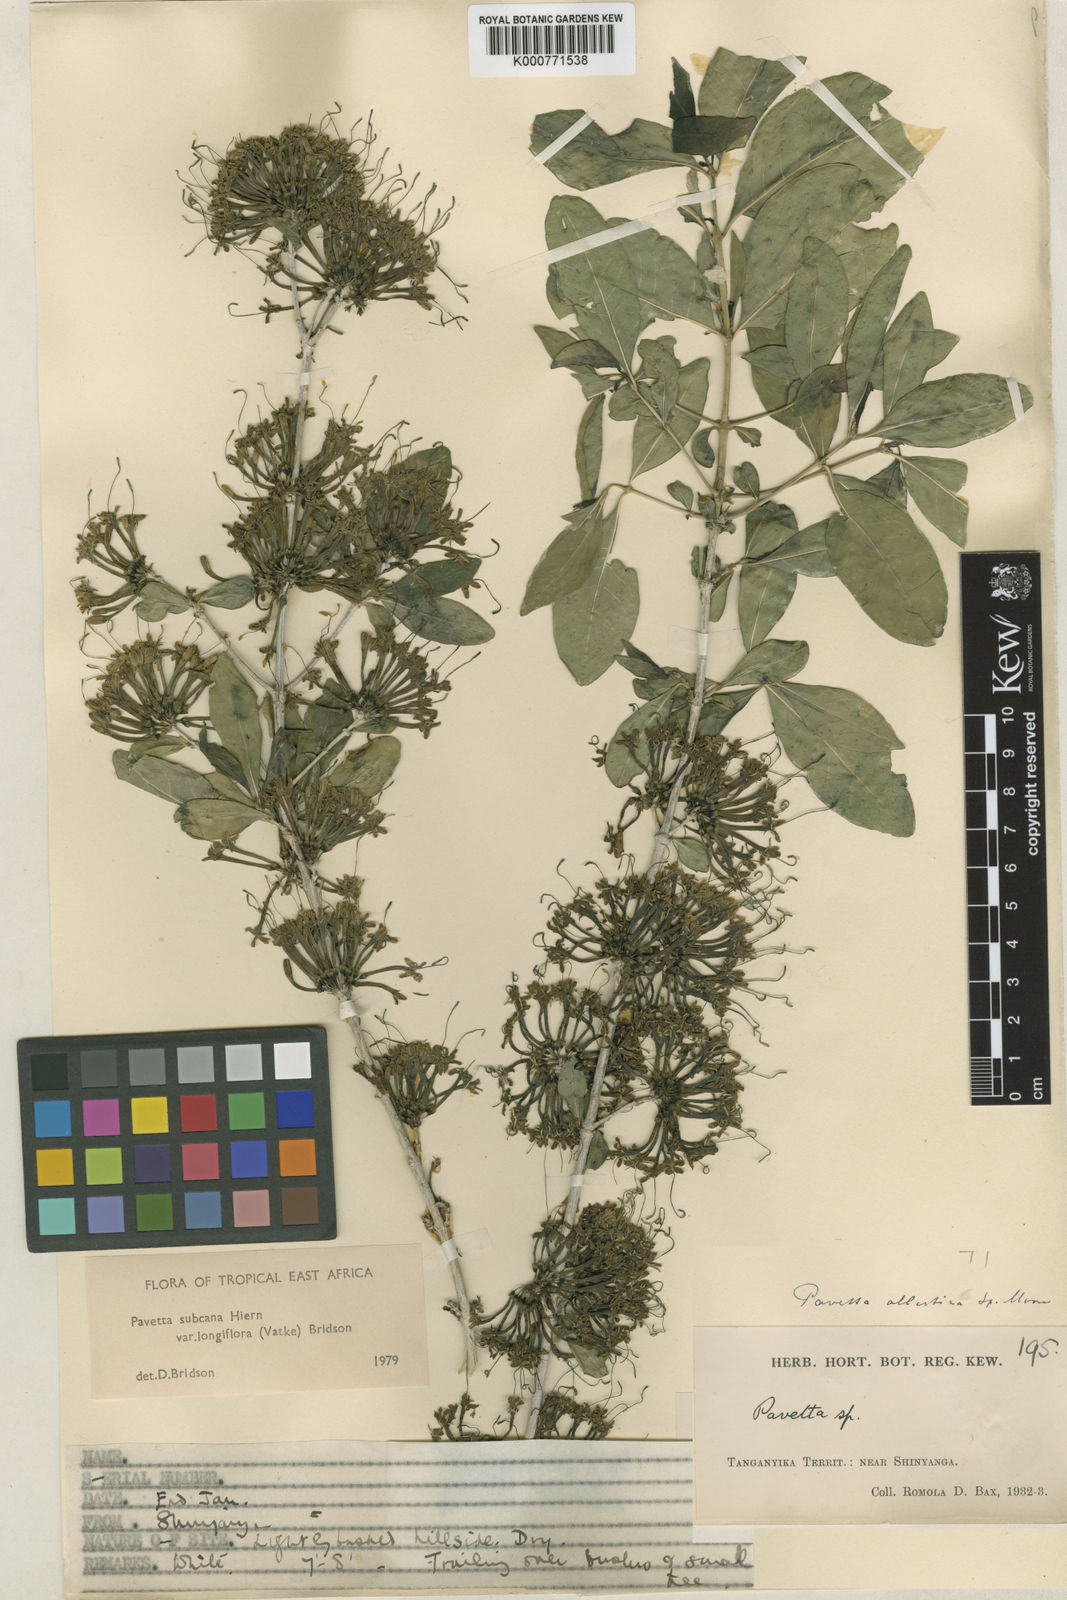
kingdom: Plantae
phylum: Tracheophyta
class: Magnoliopsida
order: Gentianales
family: Rubiaceae
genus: Pavetta
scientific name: Pavetta subcana
